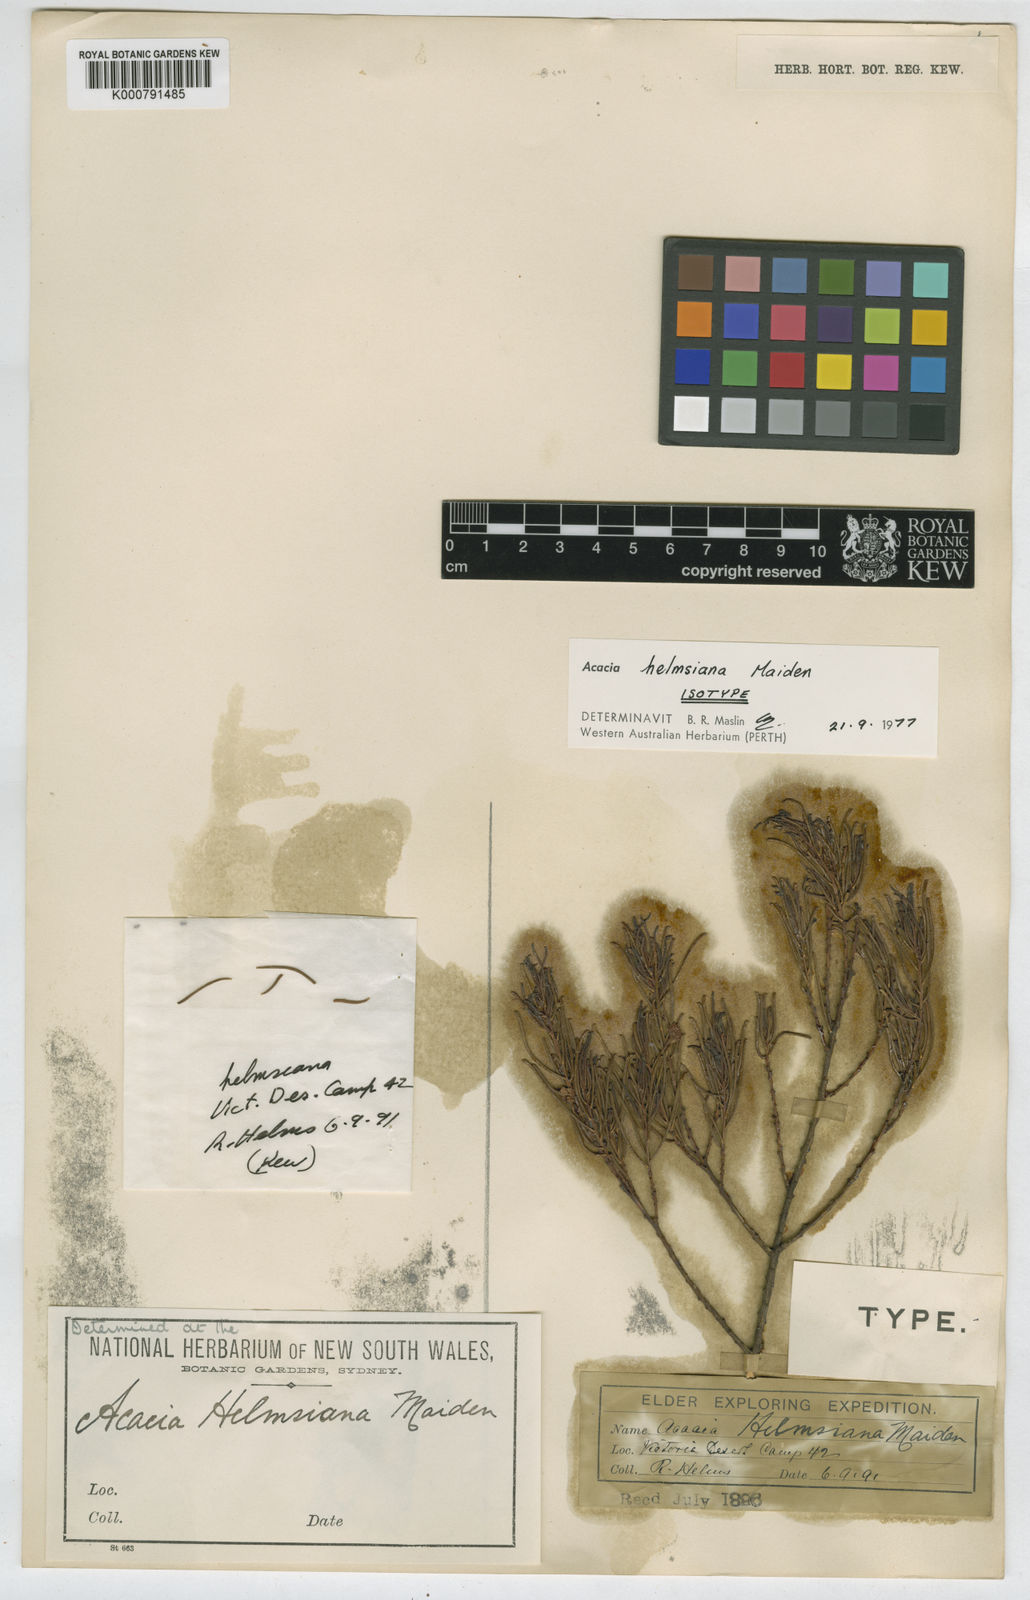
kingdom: Plantae
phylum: Tracheophyta
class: Magnoliopsida
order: Fabales
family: Fabaceae
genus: Acacia
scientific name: Acacia helmsiana
